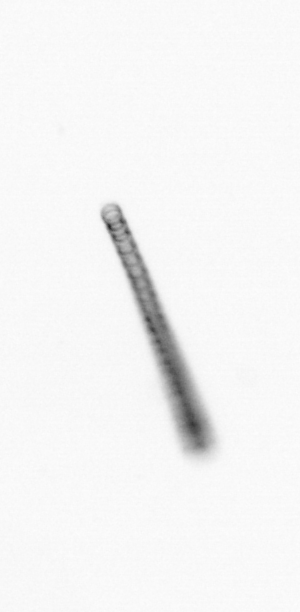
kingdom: Chromista
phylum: Ochrophyta
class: Bacillariophyceae
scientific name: Bacillariophyceae
